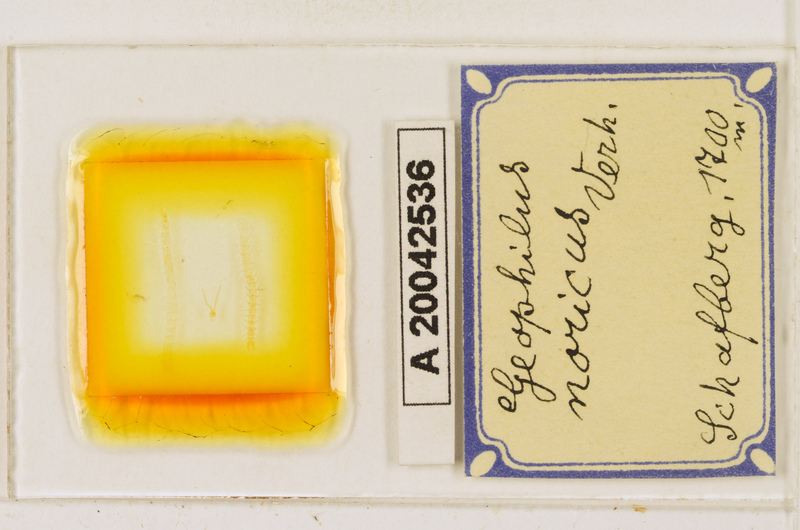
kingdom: Animalia
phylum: Arthropoda
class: Chilopoda
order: Geophilomorpha
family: Geophilidae
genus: Geophilus
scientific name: Geophilus oligopus
